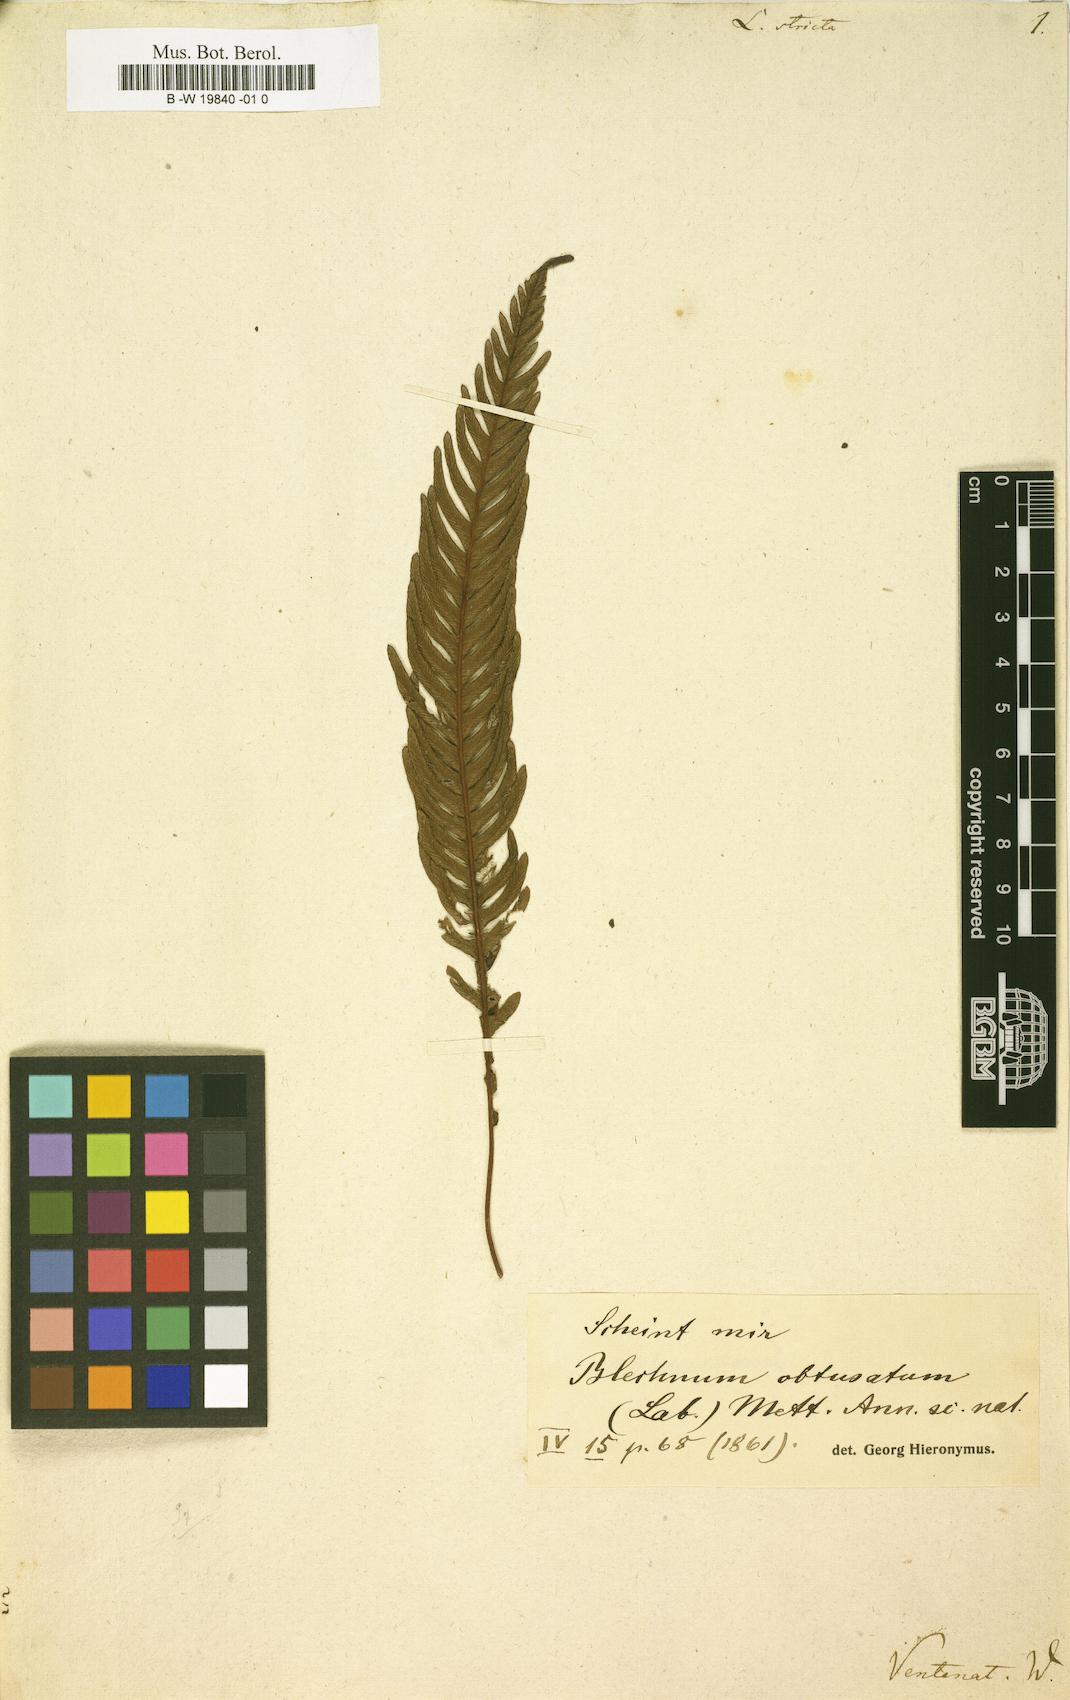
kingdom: Plantae
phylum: Tracheophyta
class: Polypodiopsida
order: Polypodiales
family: Blechnaceae
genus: Parablechnum
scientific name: Parablechnum ryanii
